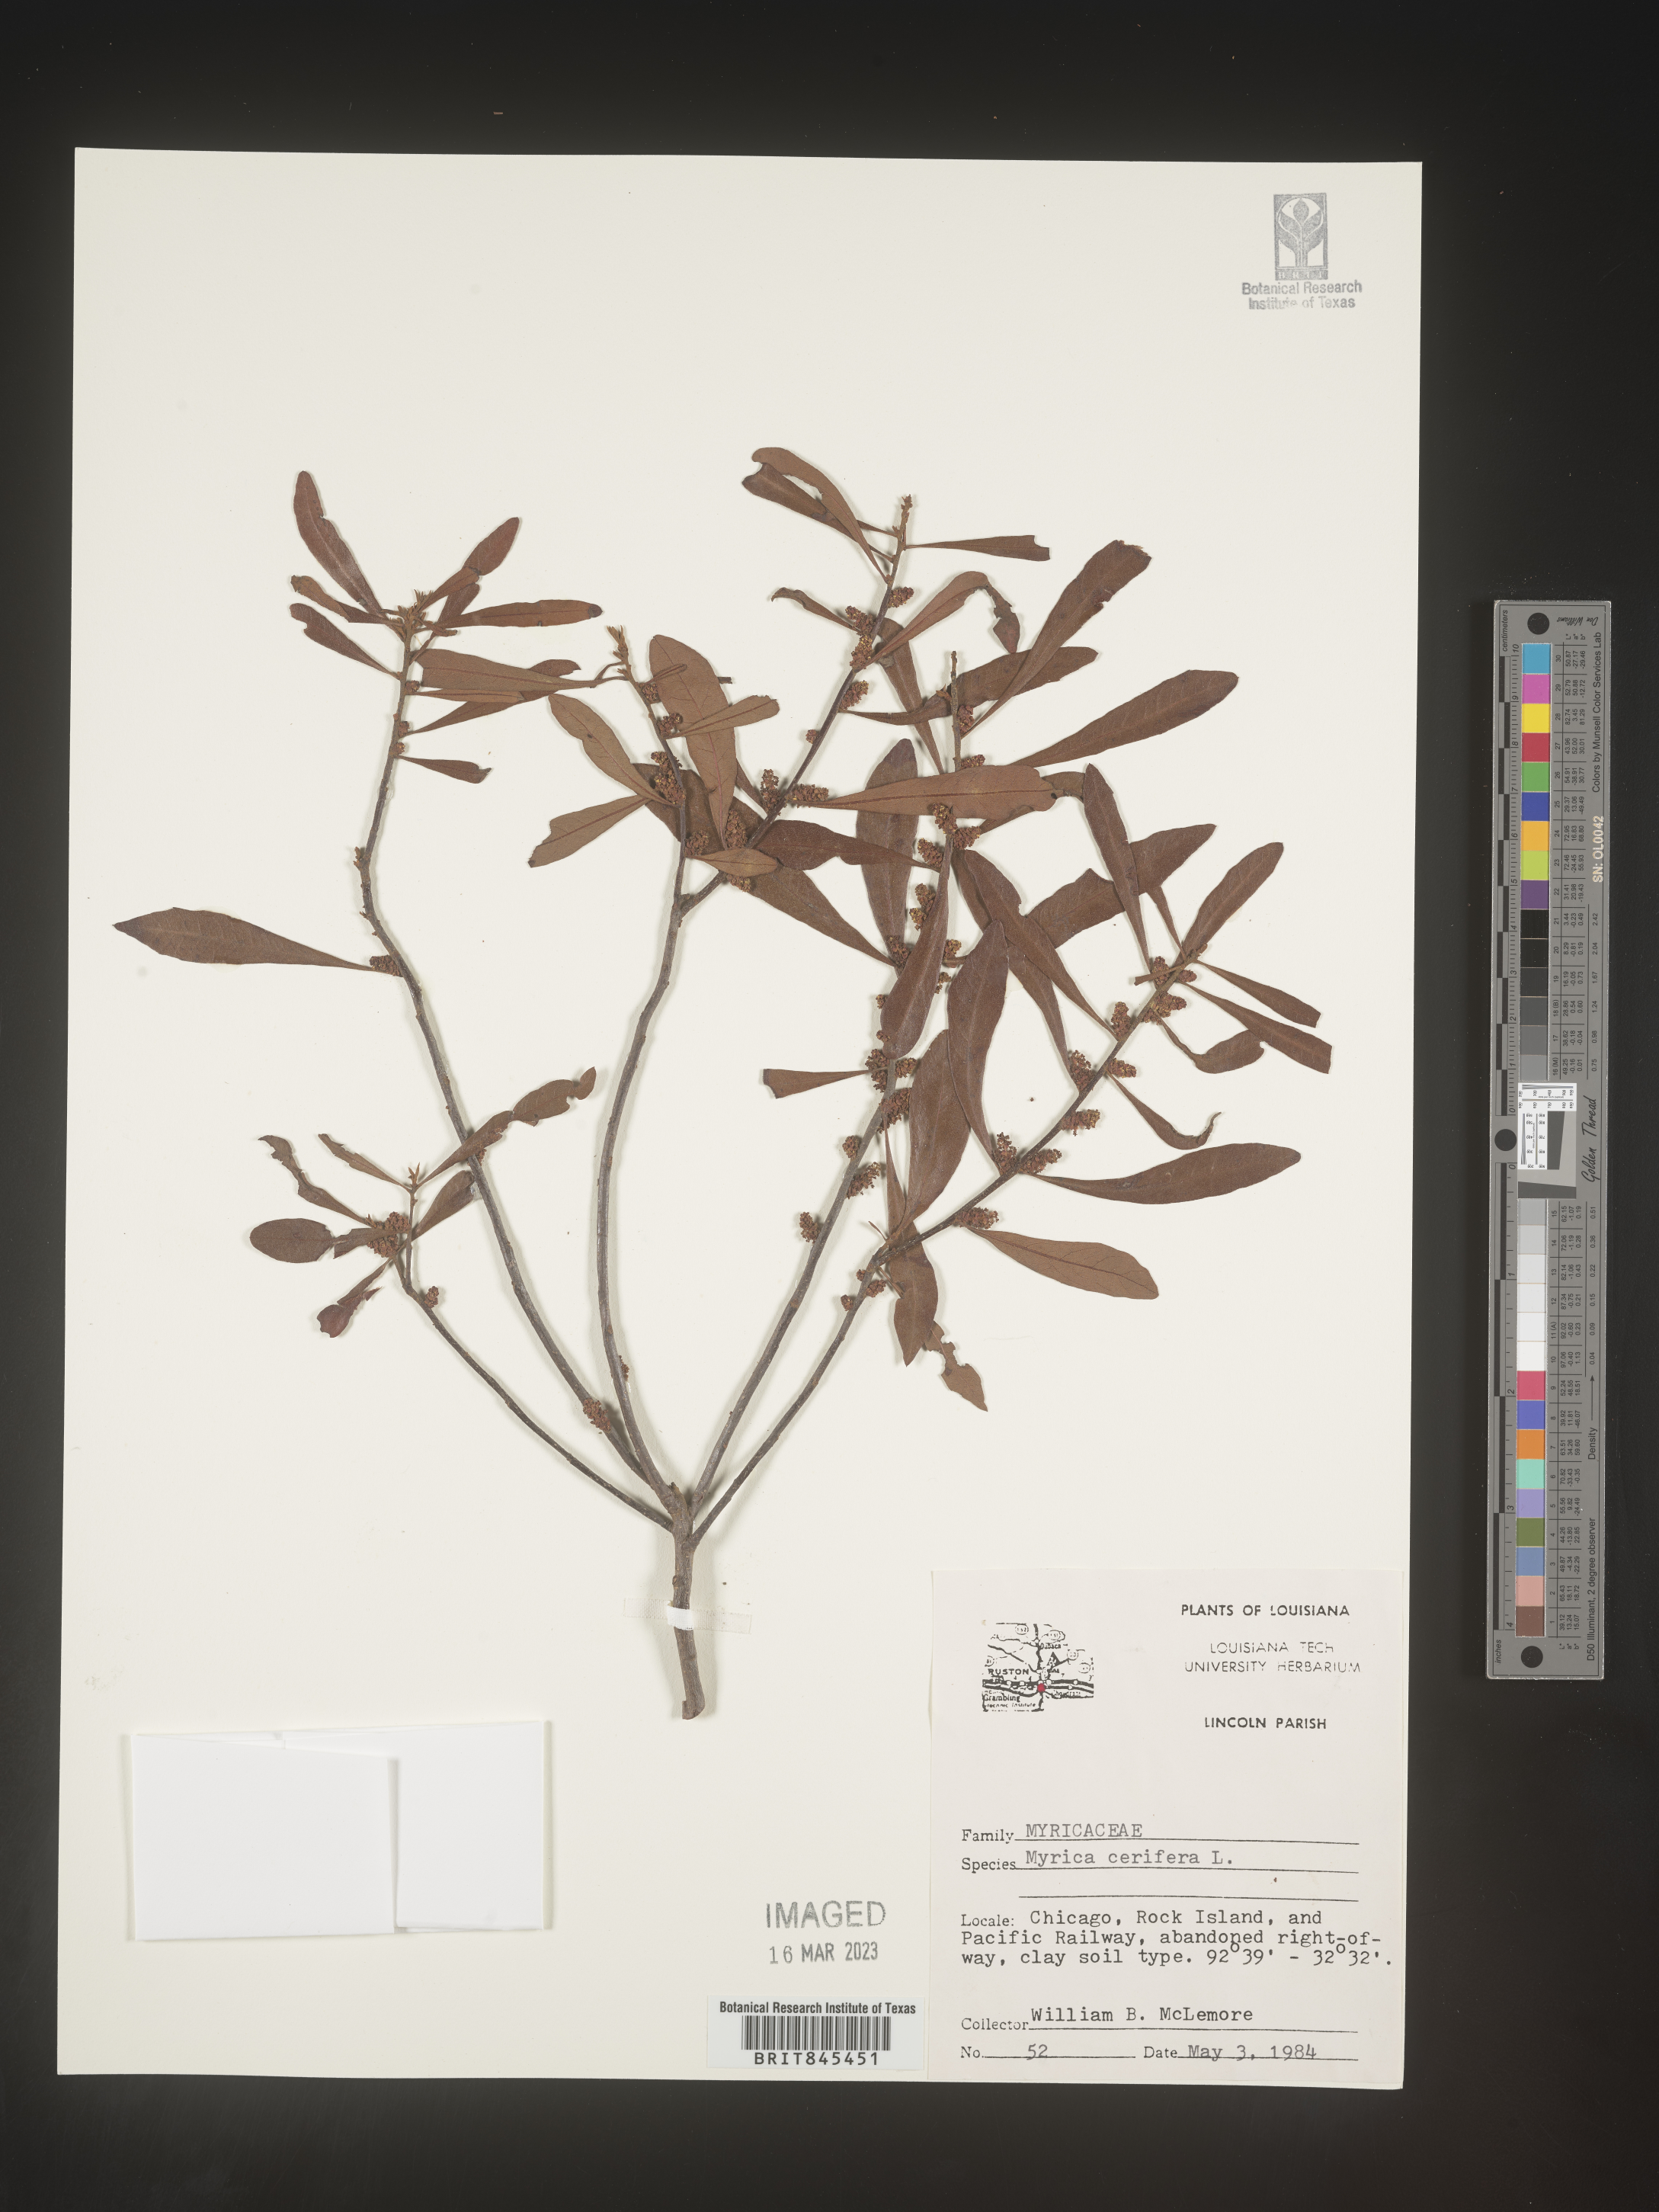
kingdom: Plantae
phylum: Tracheophyta
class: Magnoliopsida
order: Fagales
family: Myricaceae
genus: Morella
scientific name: Morella cerifera
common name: Wax myrtle
